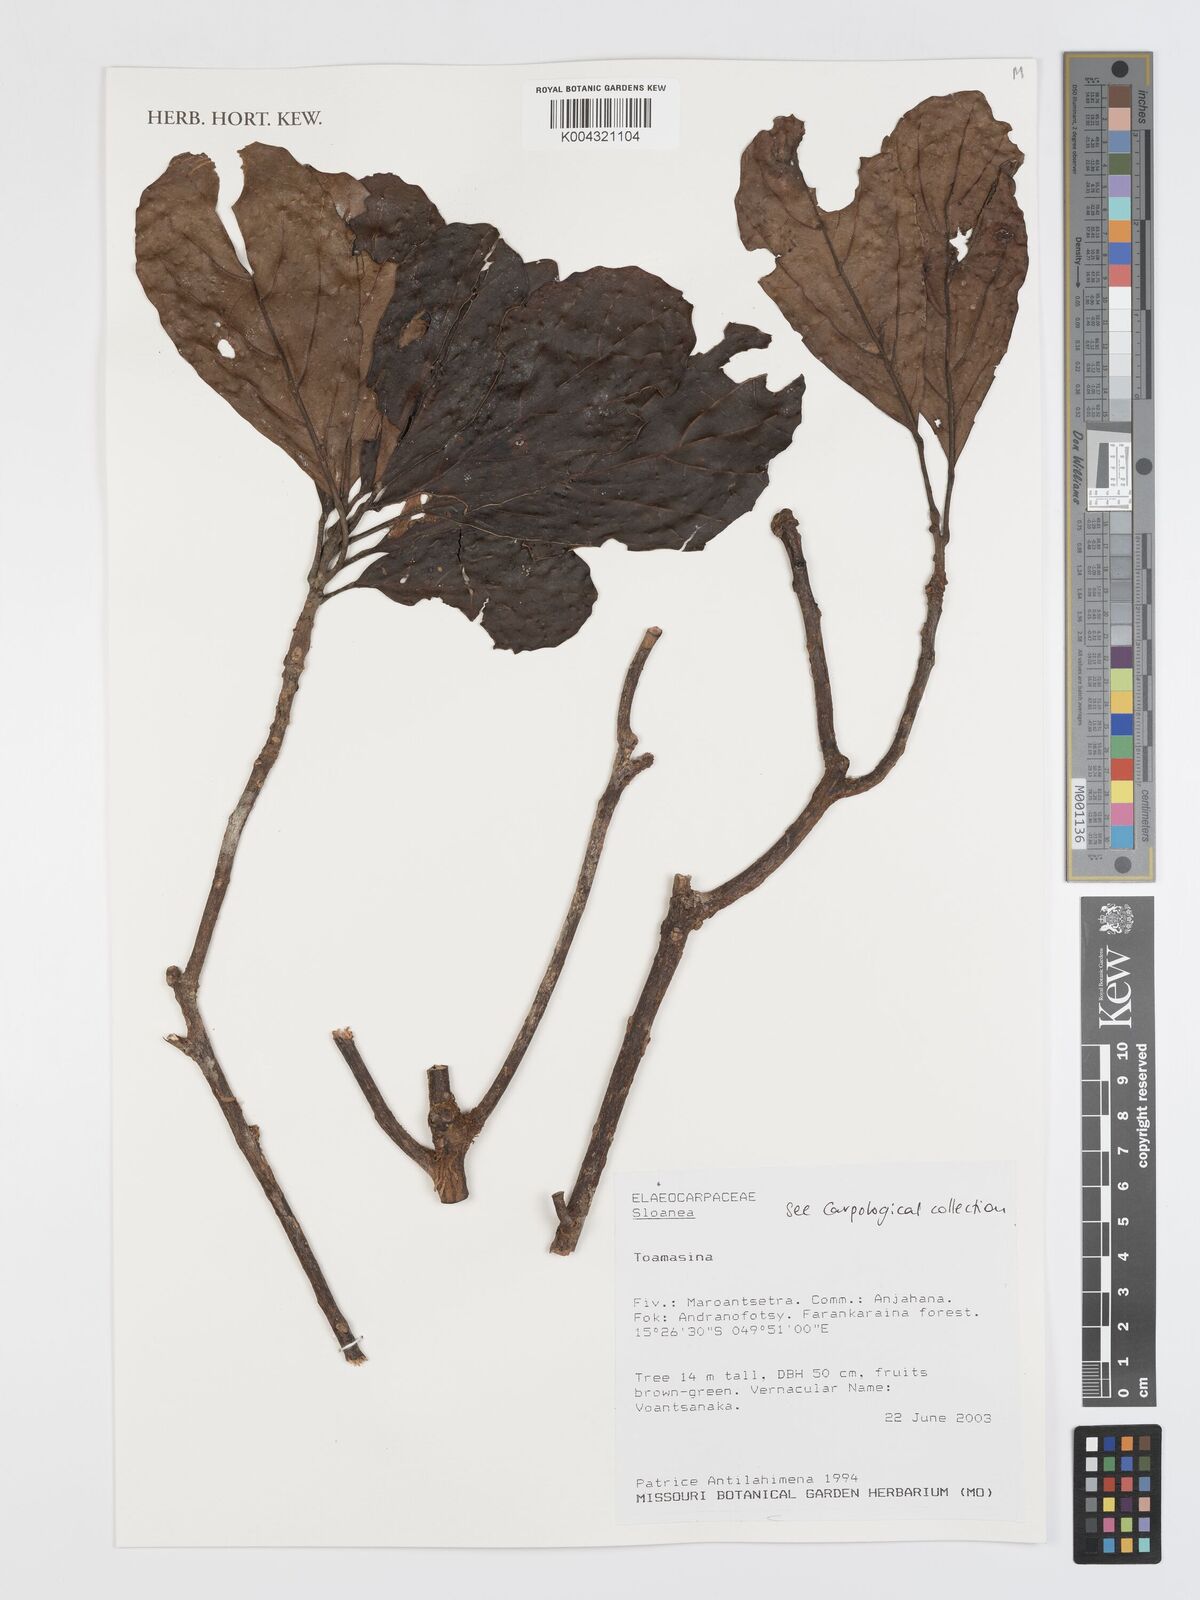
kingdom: Plantae
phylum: Tracheophyta
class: Magnoliopsida
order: Oxalidales
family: Elaeocarpaceae
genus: Sloanea
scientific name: Sloanea
